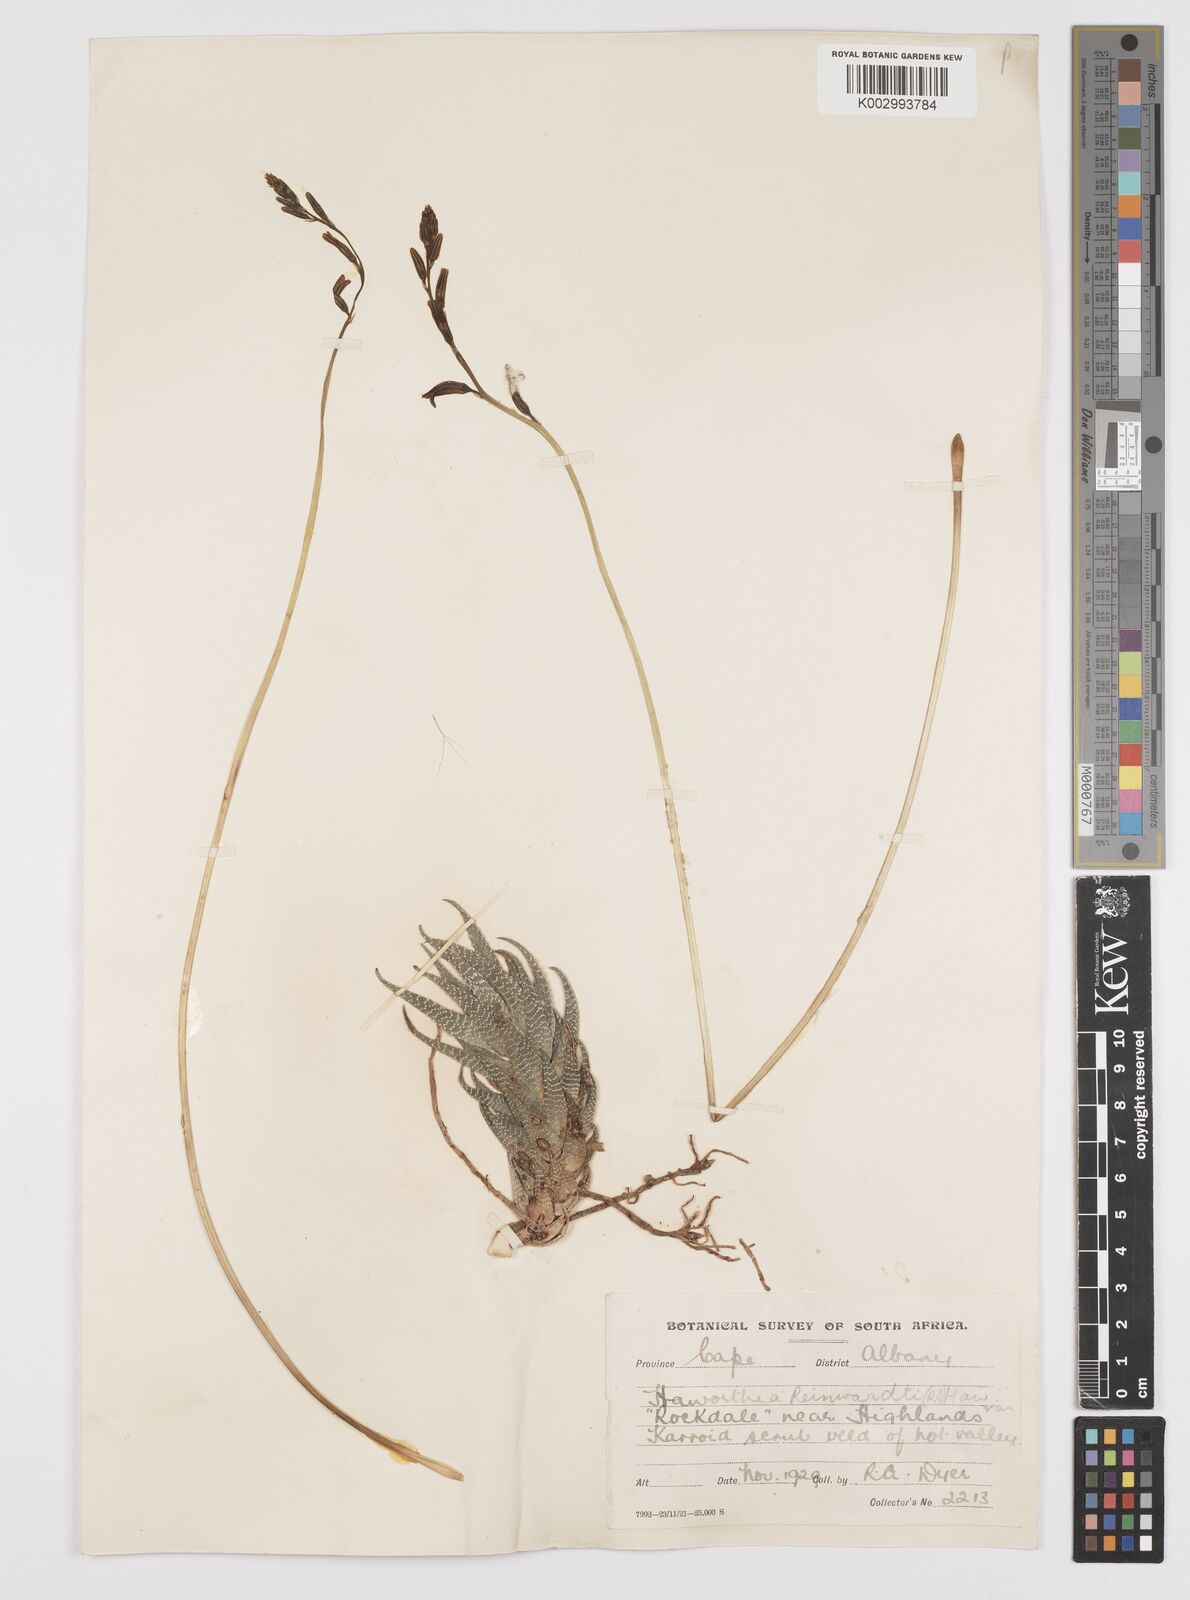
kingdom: Plantae
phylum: Tracheophyta
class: Liliopsida
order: Asparagales
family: Asphodelaceae
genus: Haworthiopsis
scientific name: Haworthiopsis reinwardtii
